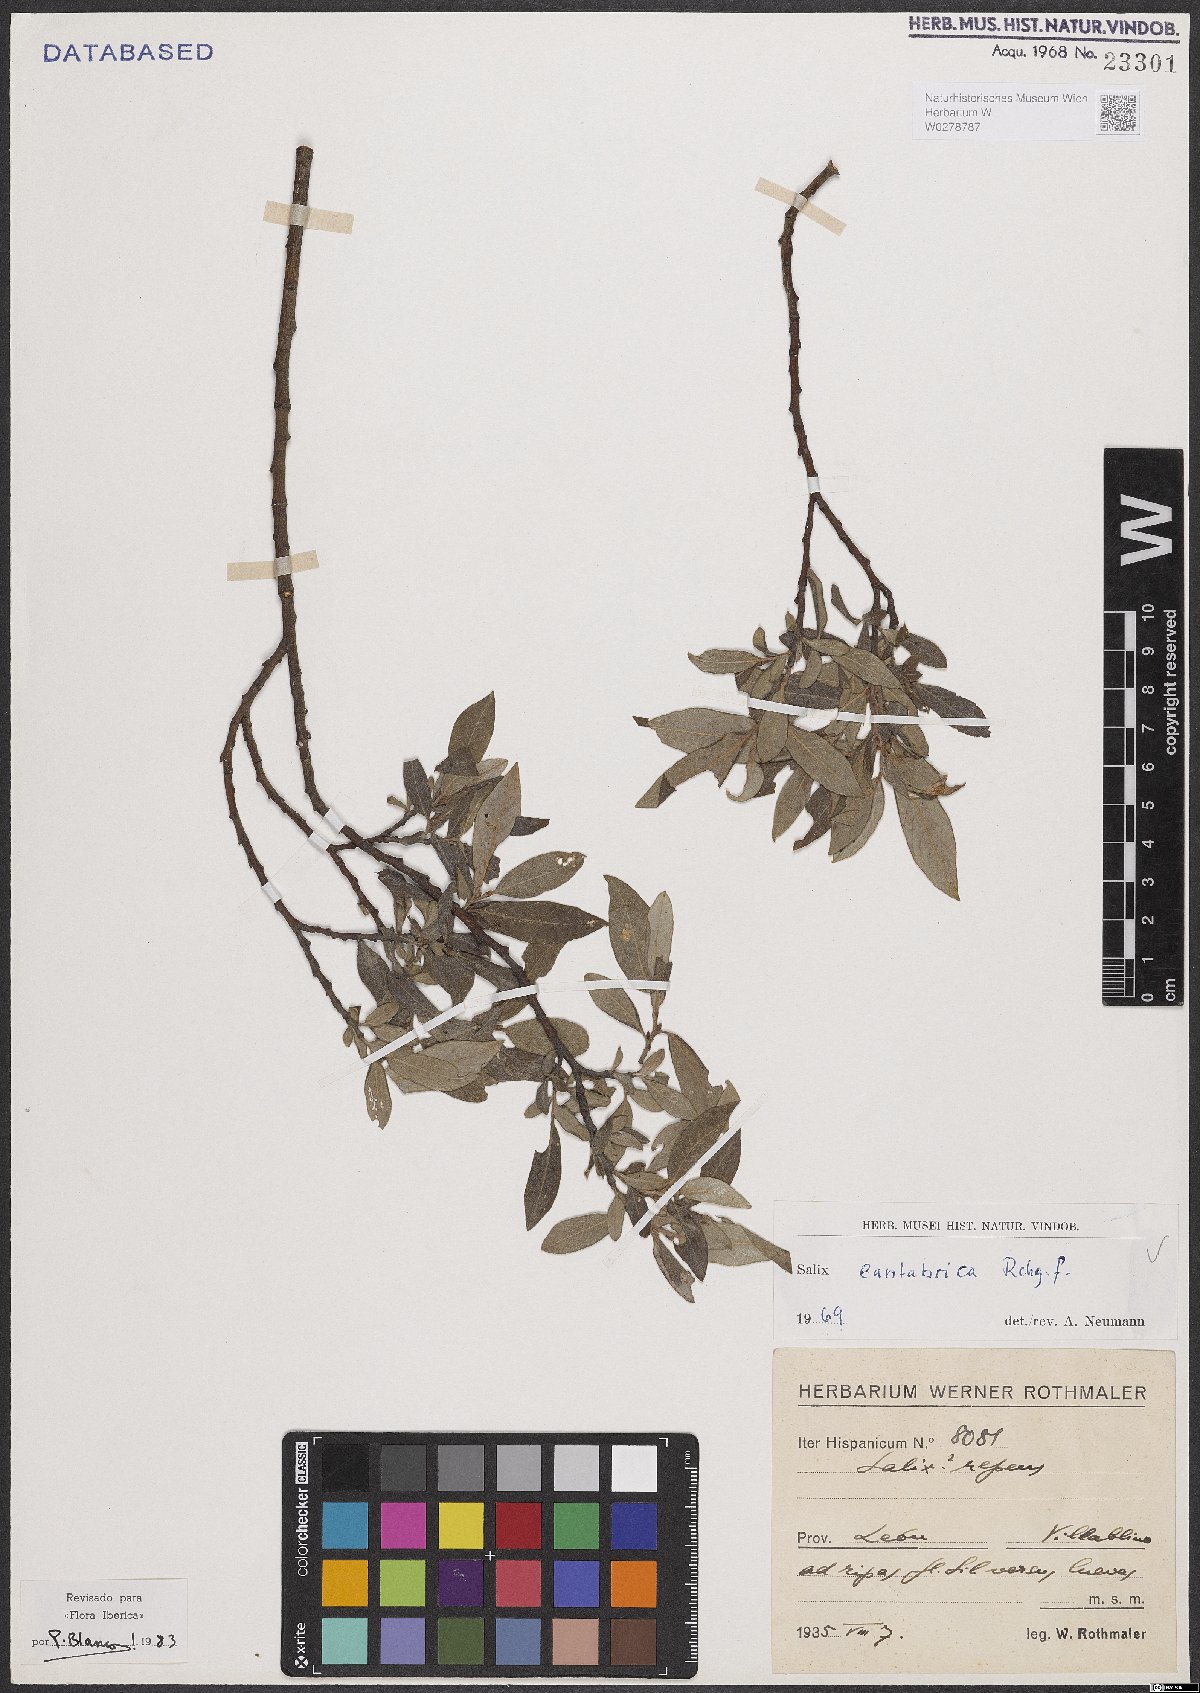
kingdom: Plantae
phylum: Tracheophyta
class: Magnoliopsida
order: Malpighiales
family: Salicaceae
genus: Salix
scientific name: Salix cantabrica
